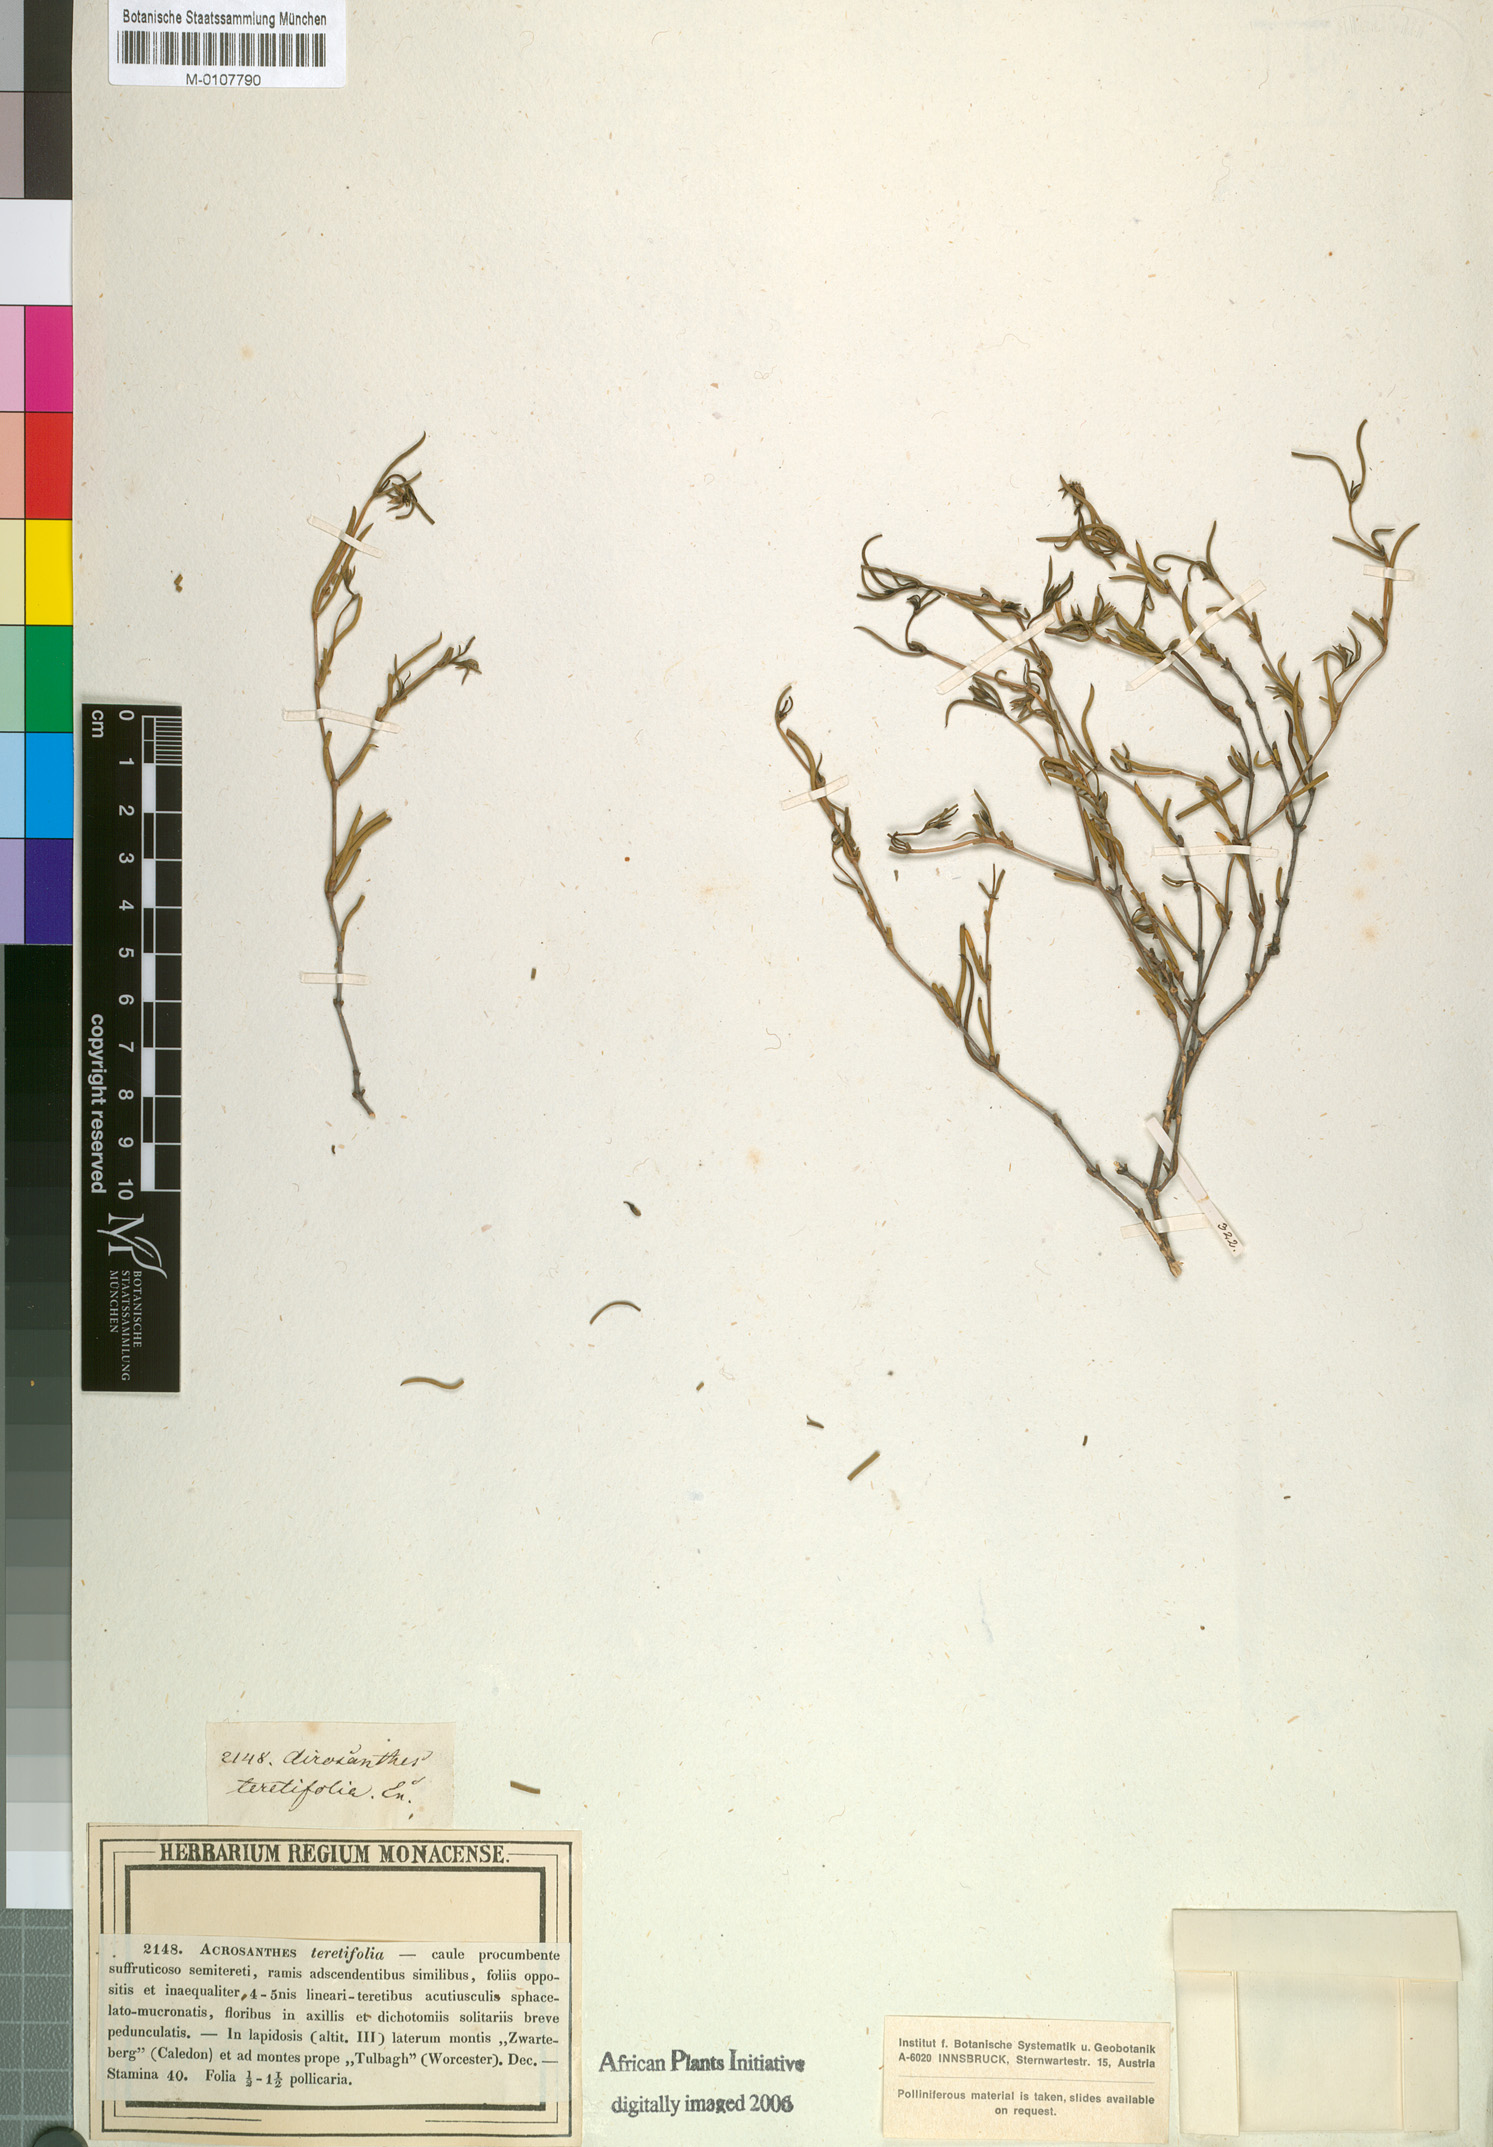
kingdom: Plantae
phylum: Tracheophyta
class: Magnoliopsida
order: Caryophyllales
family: Aizoaceae
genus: Acrosanthes
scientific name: Acrosanthes teretifolia
